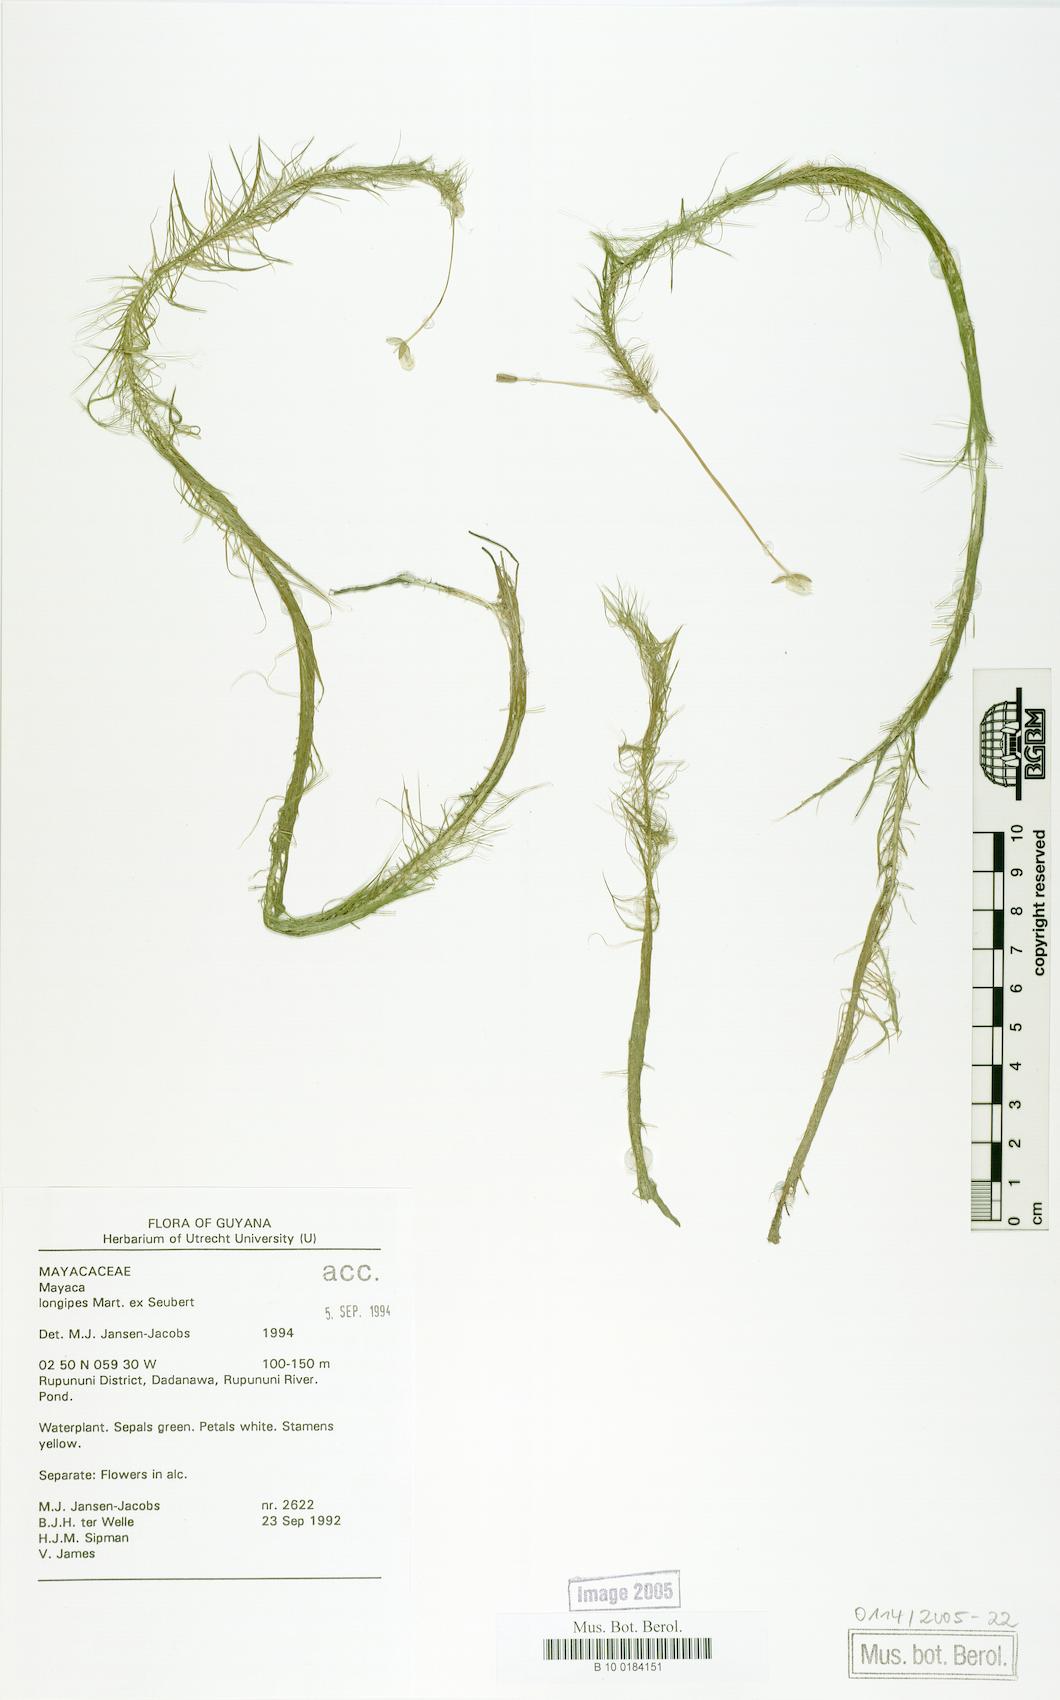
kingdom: Plantae
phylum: Tracheophyta
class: Liliopsida
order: Poales
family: Mayacaceae
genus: Mayaca
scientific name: Mayaca longipes
